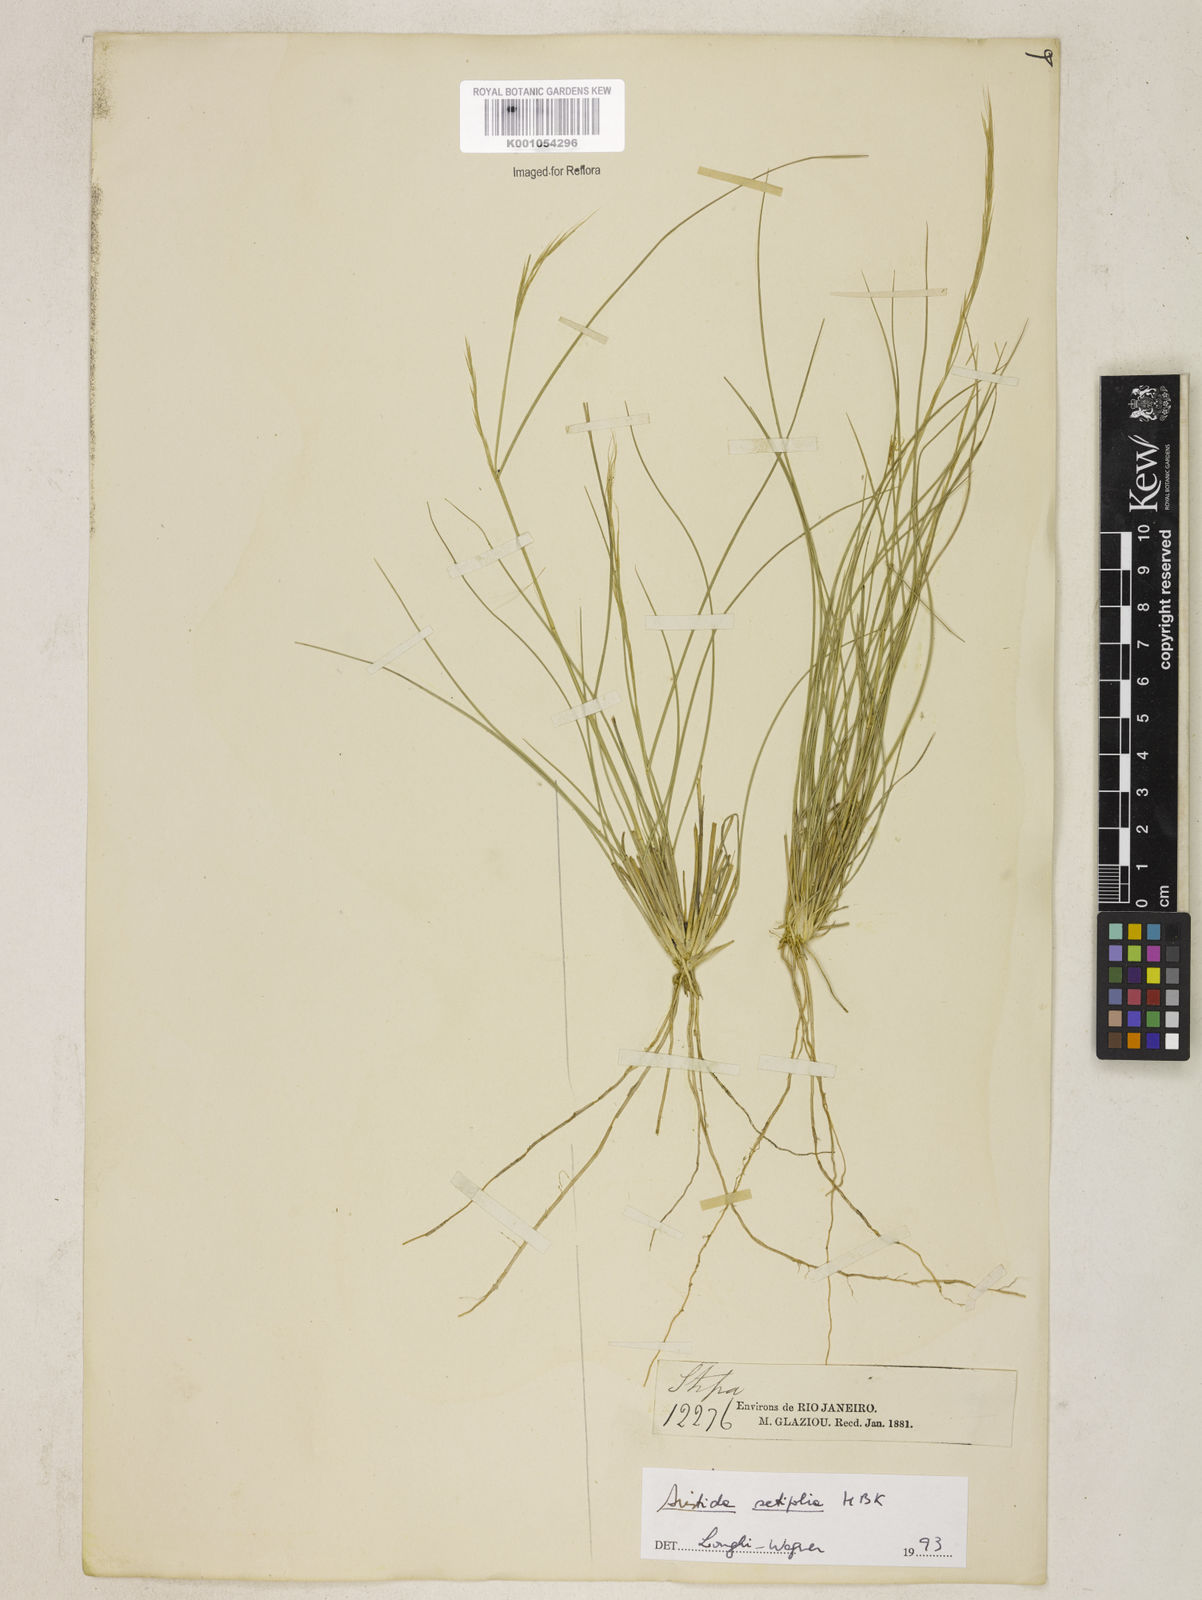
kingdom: Plantae
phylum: Tracheophyta
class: Liliopsida
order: Poales
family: Poaceae
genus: Aristida
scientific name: Aristida setifolia
